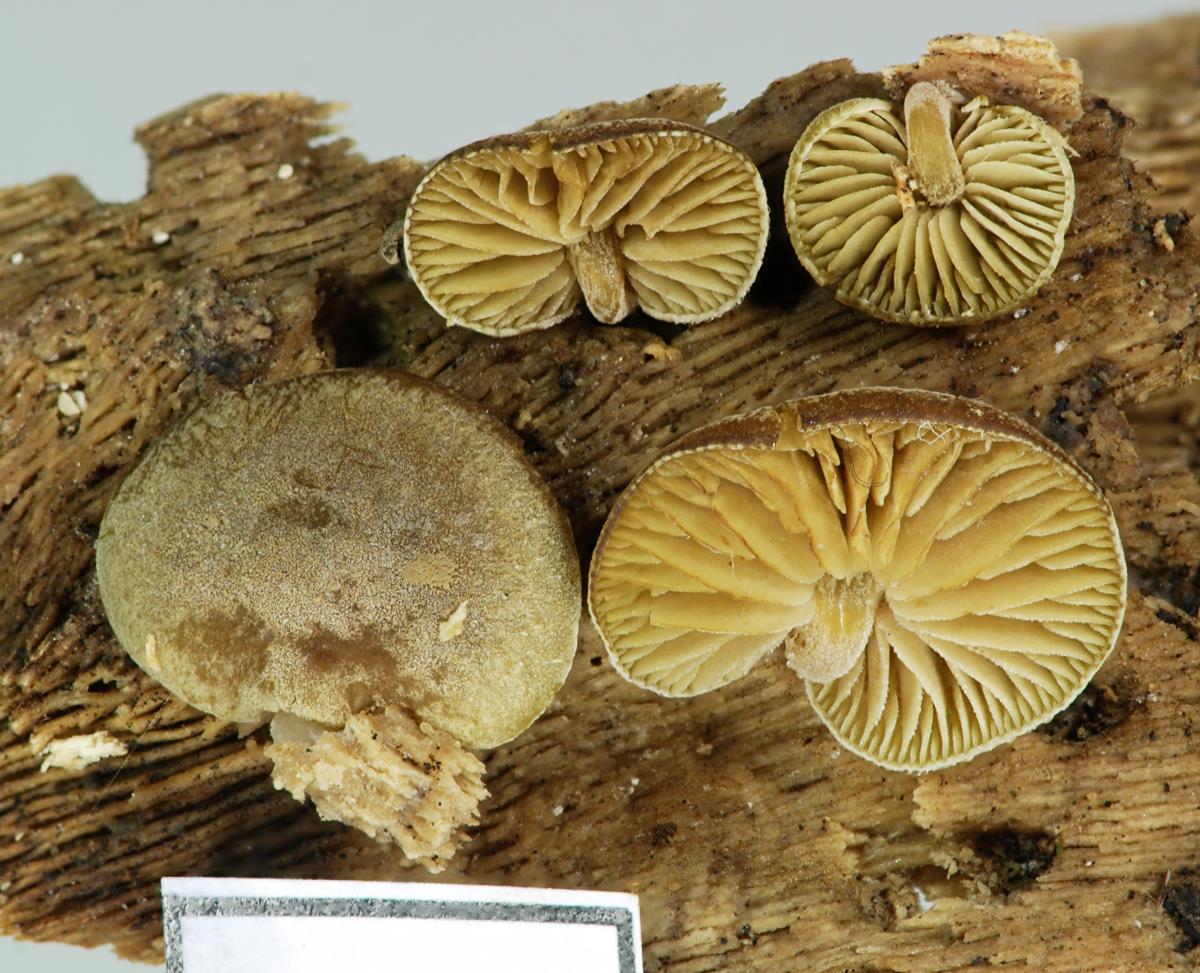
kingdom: Fungi
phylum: Basidiomycota
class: Agaricomycetes
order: Agaricales
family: Crepidotaceae
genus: Simocybe
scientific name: Simocybe pruinata
